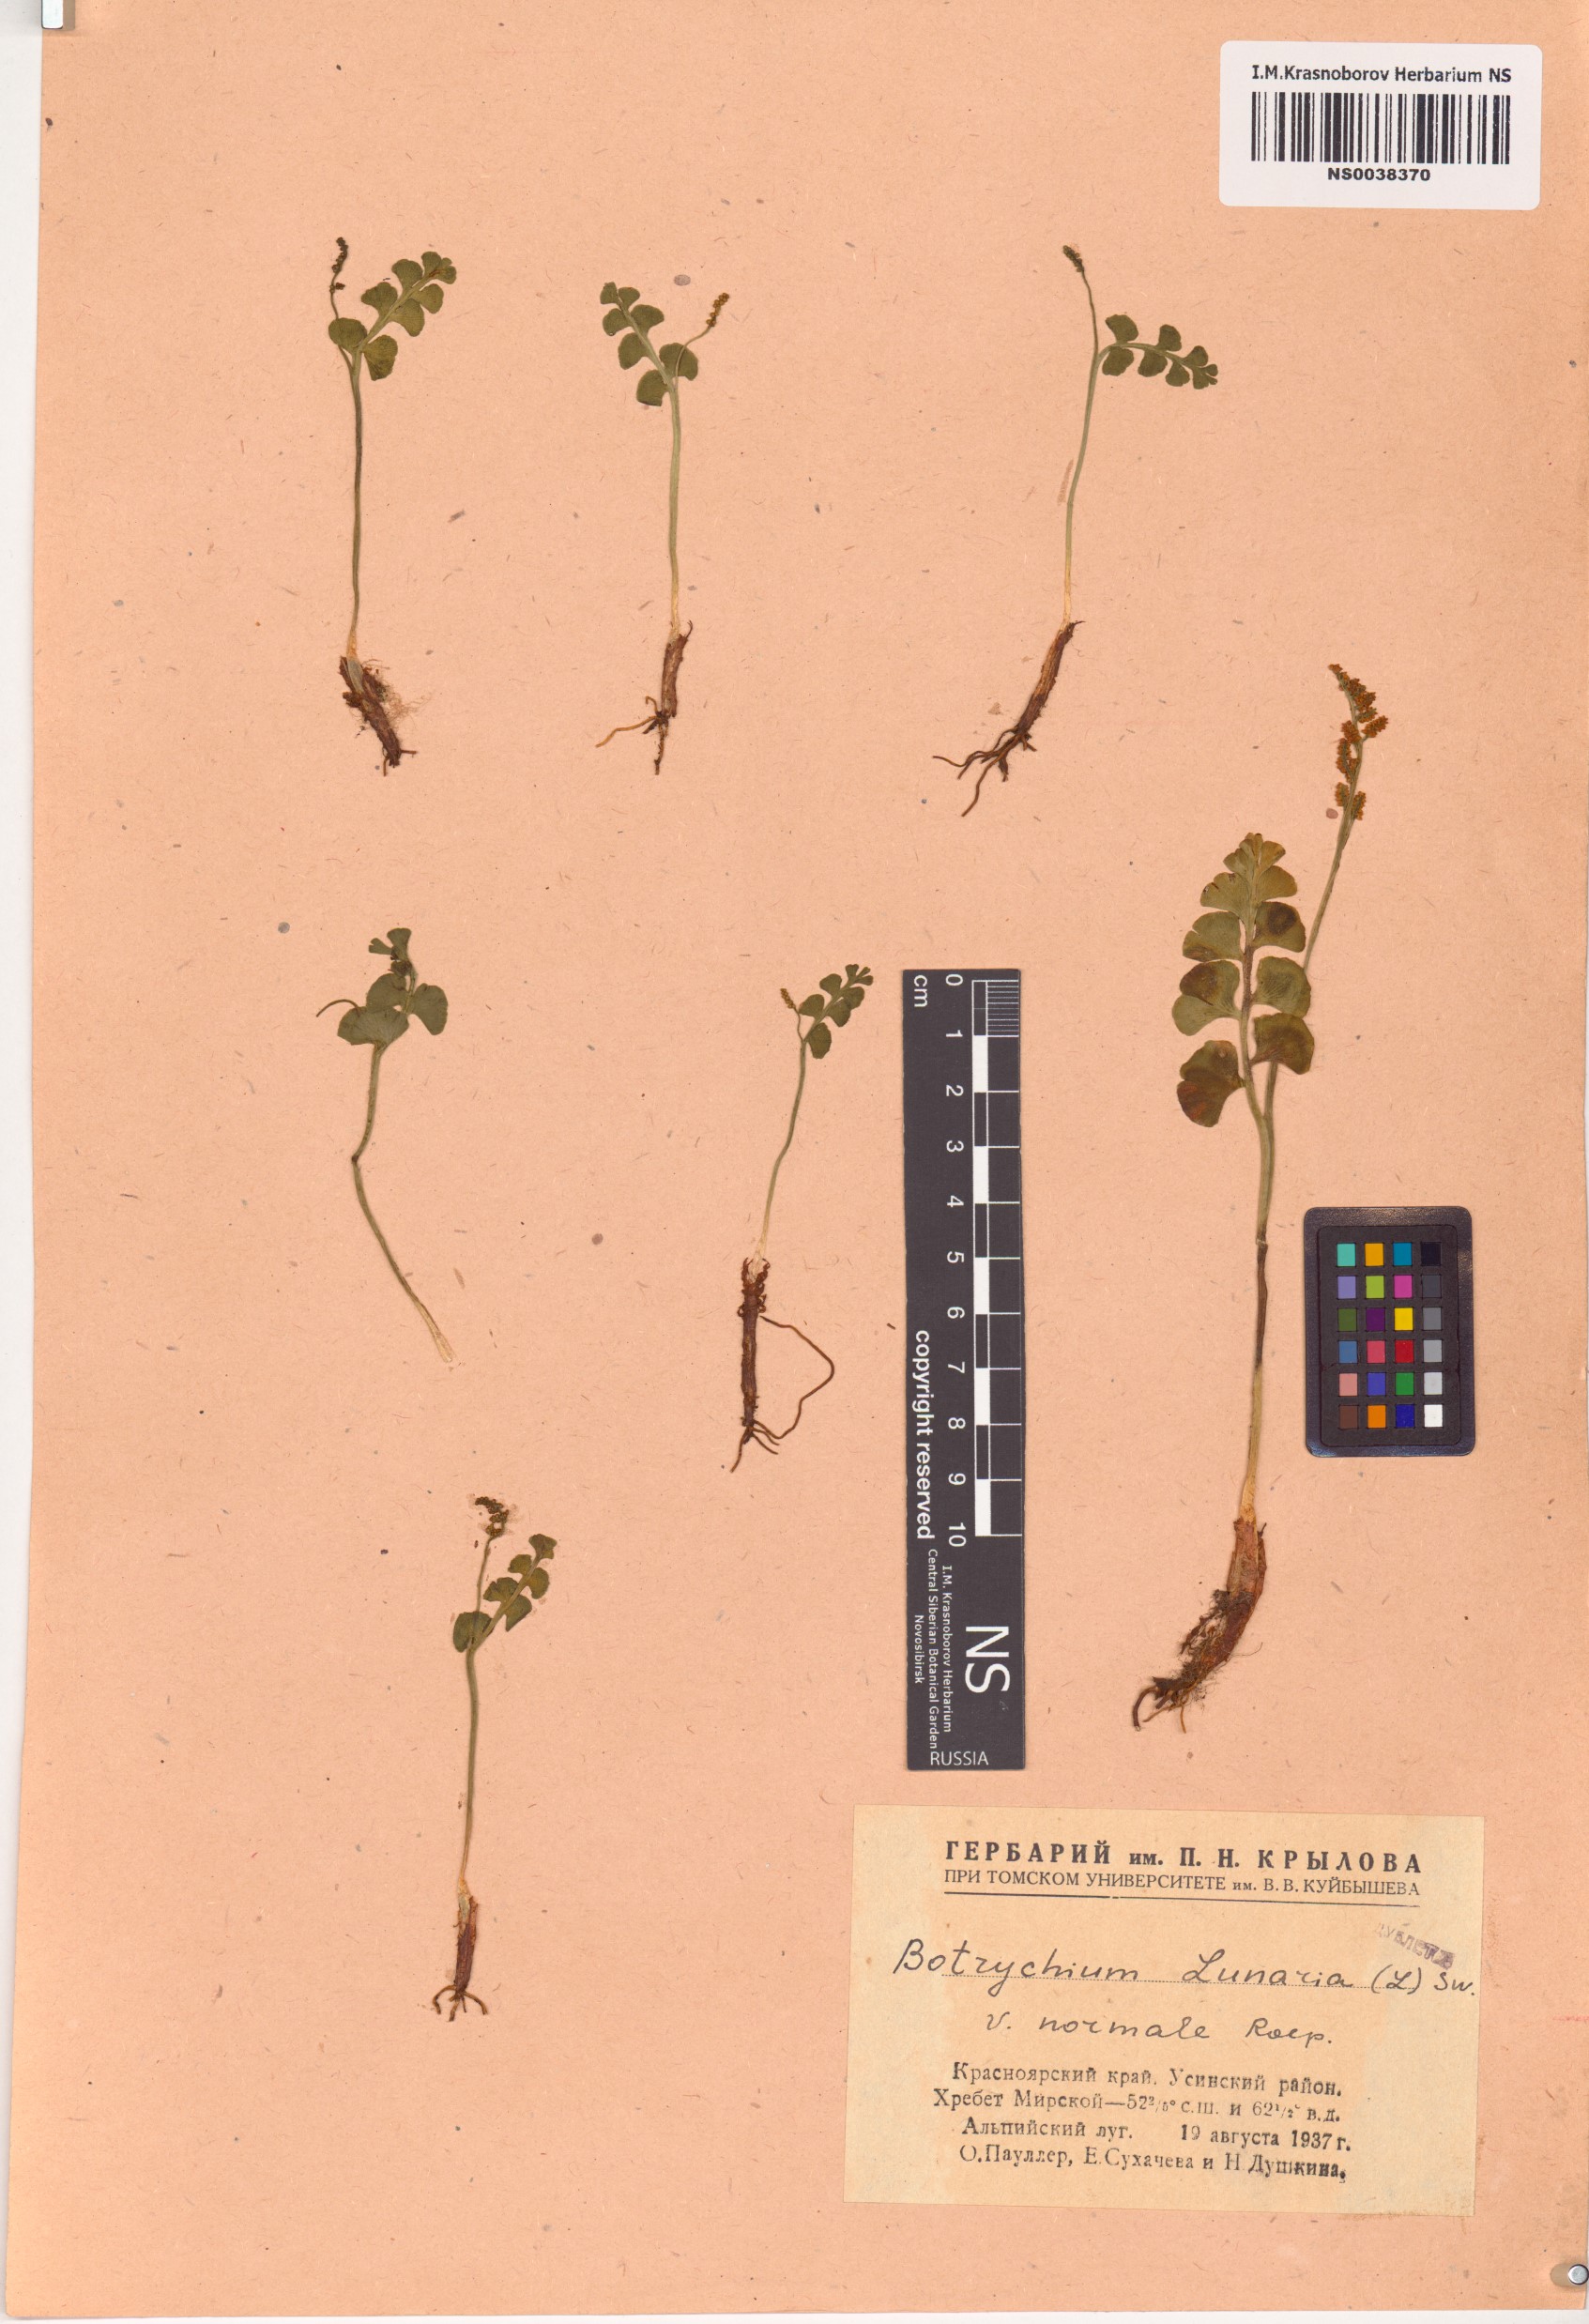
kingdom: Plantae
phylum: Tracheophyta
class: Polypodiopsida
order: Ophioglossales
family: Ophioglossaceae
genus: Botrychium
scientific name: Botrychium lunaria
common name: Moonwort
